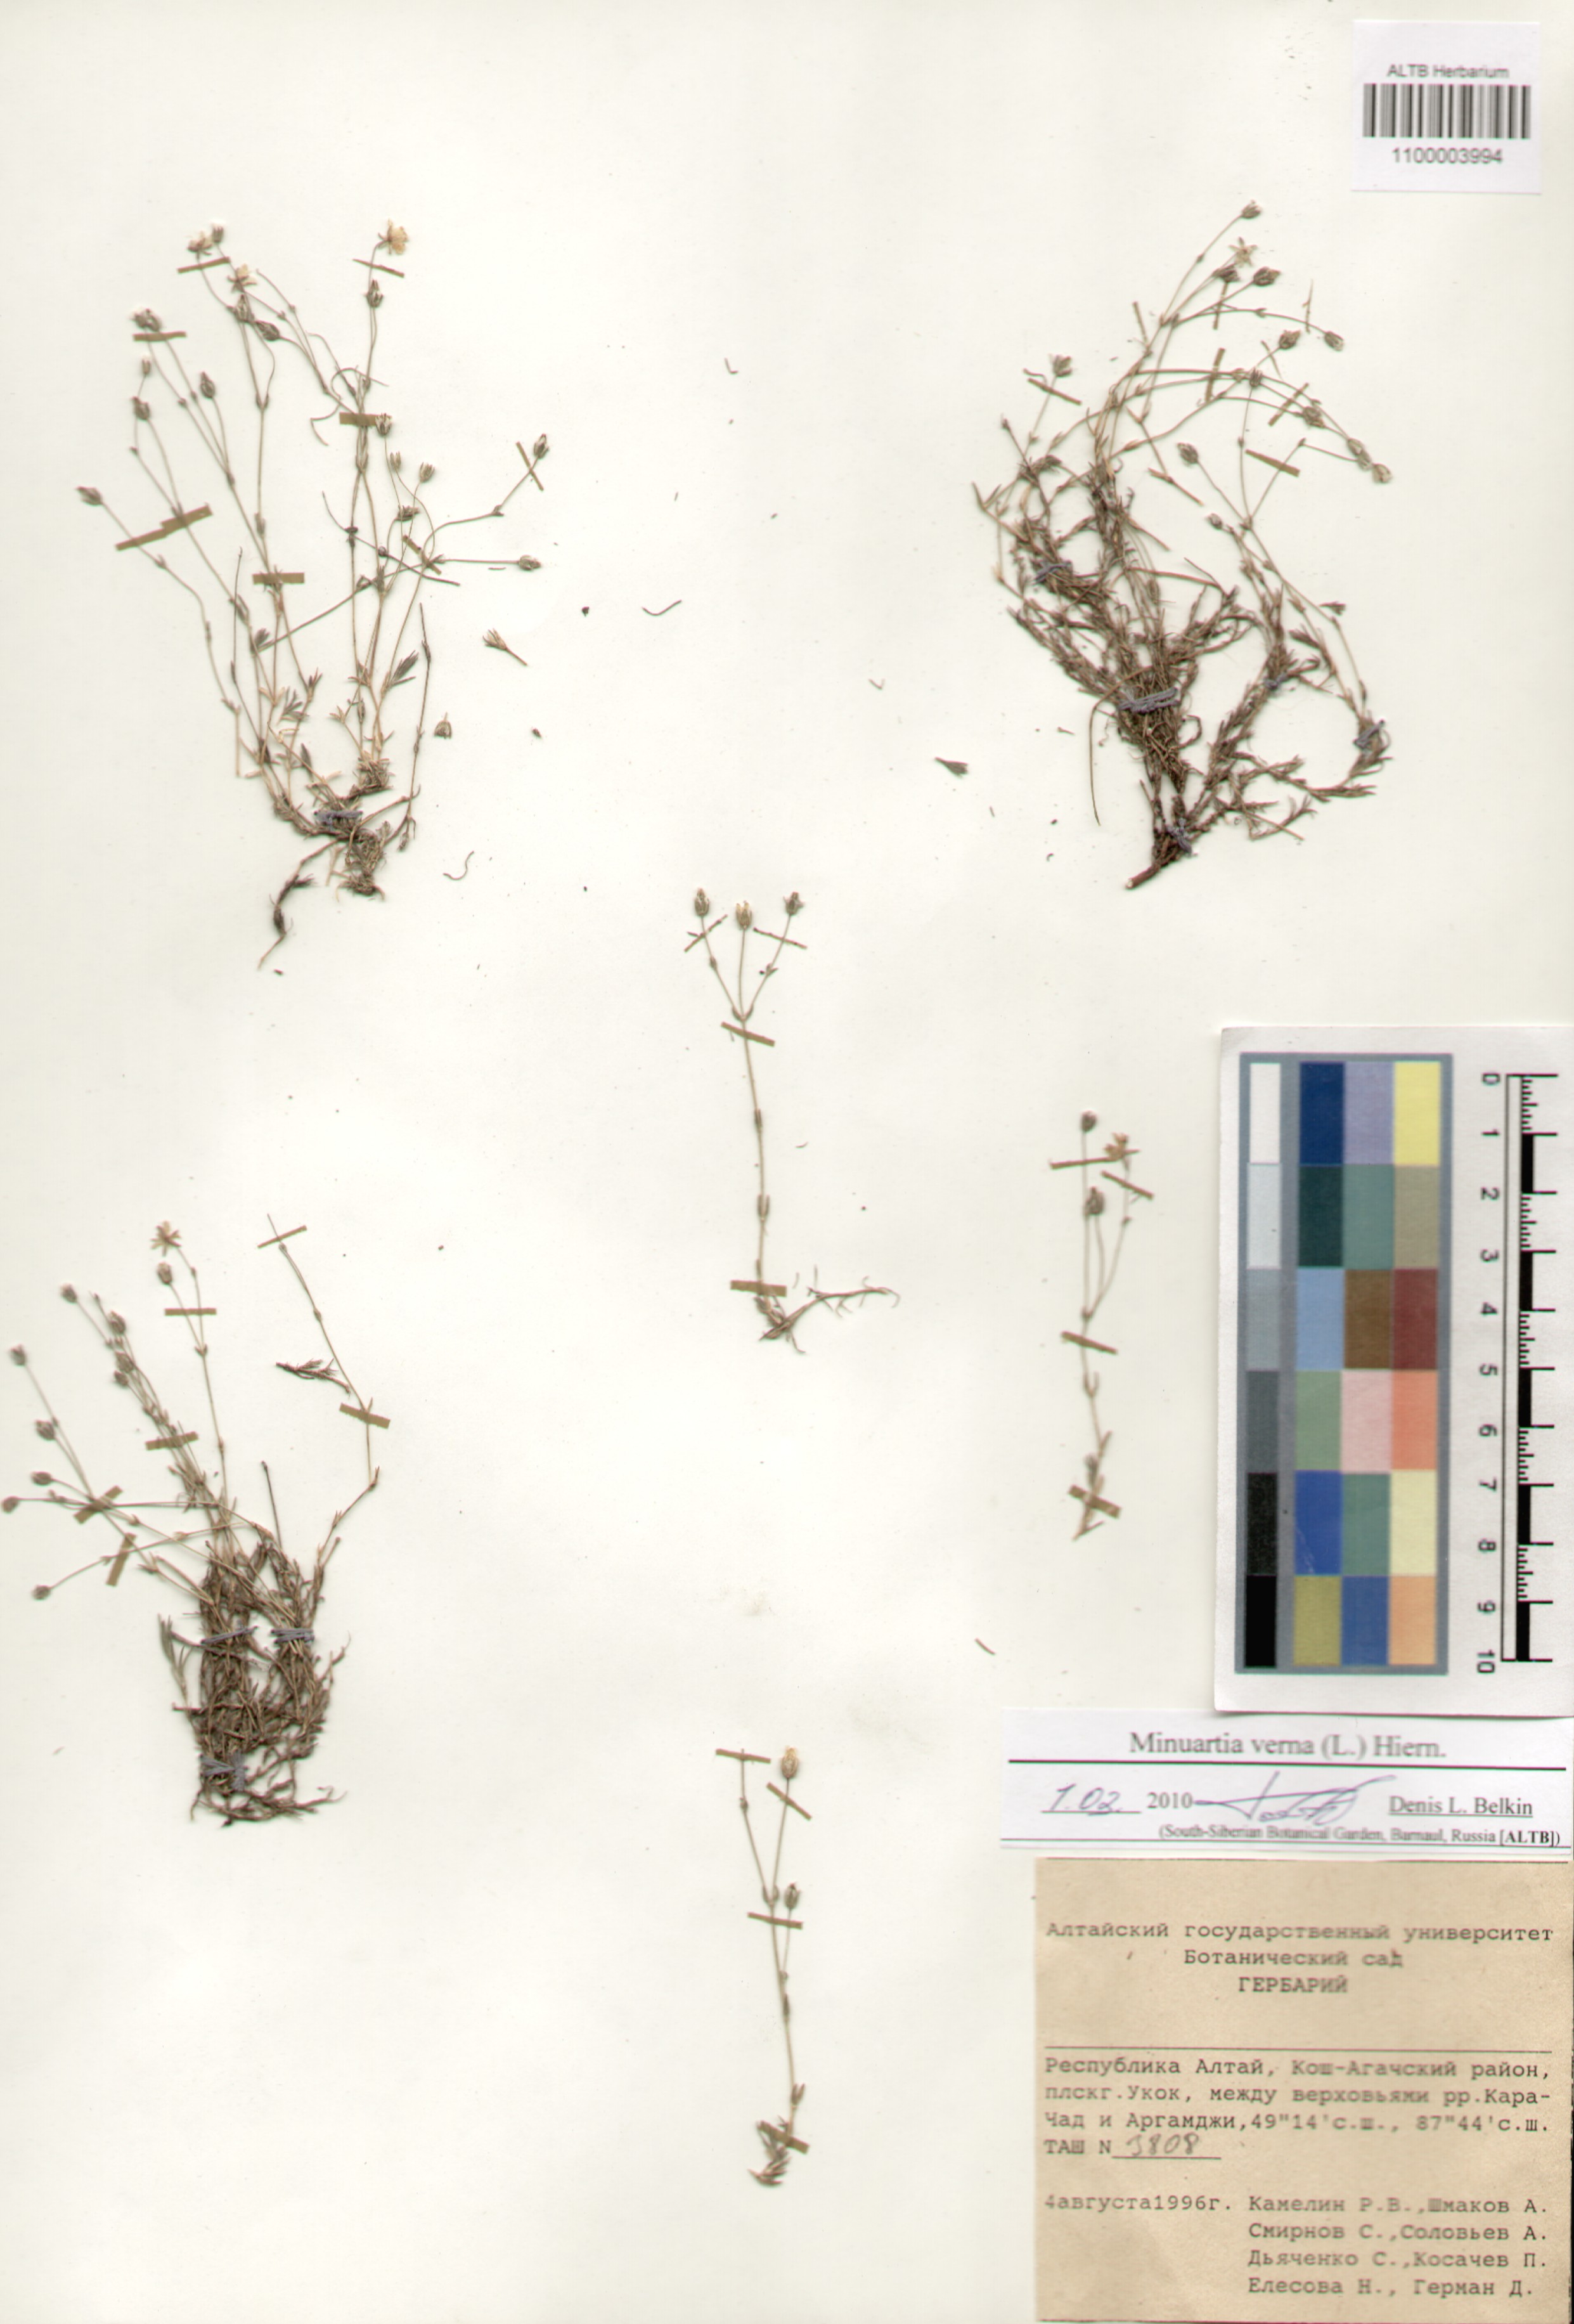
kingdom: Plantae
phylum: Tracheophyta
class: Magnoliopsida
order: Caryophyllales
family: Caryophyllaceae
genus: Sabulina
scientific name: Sabulina verna
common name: Spring sandwort
